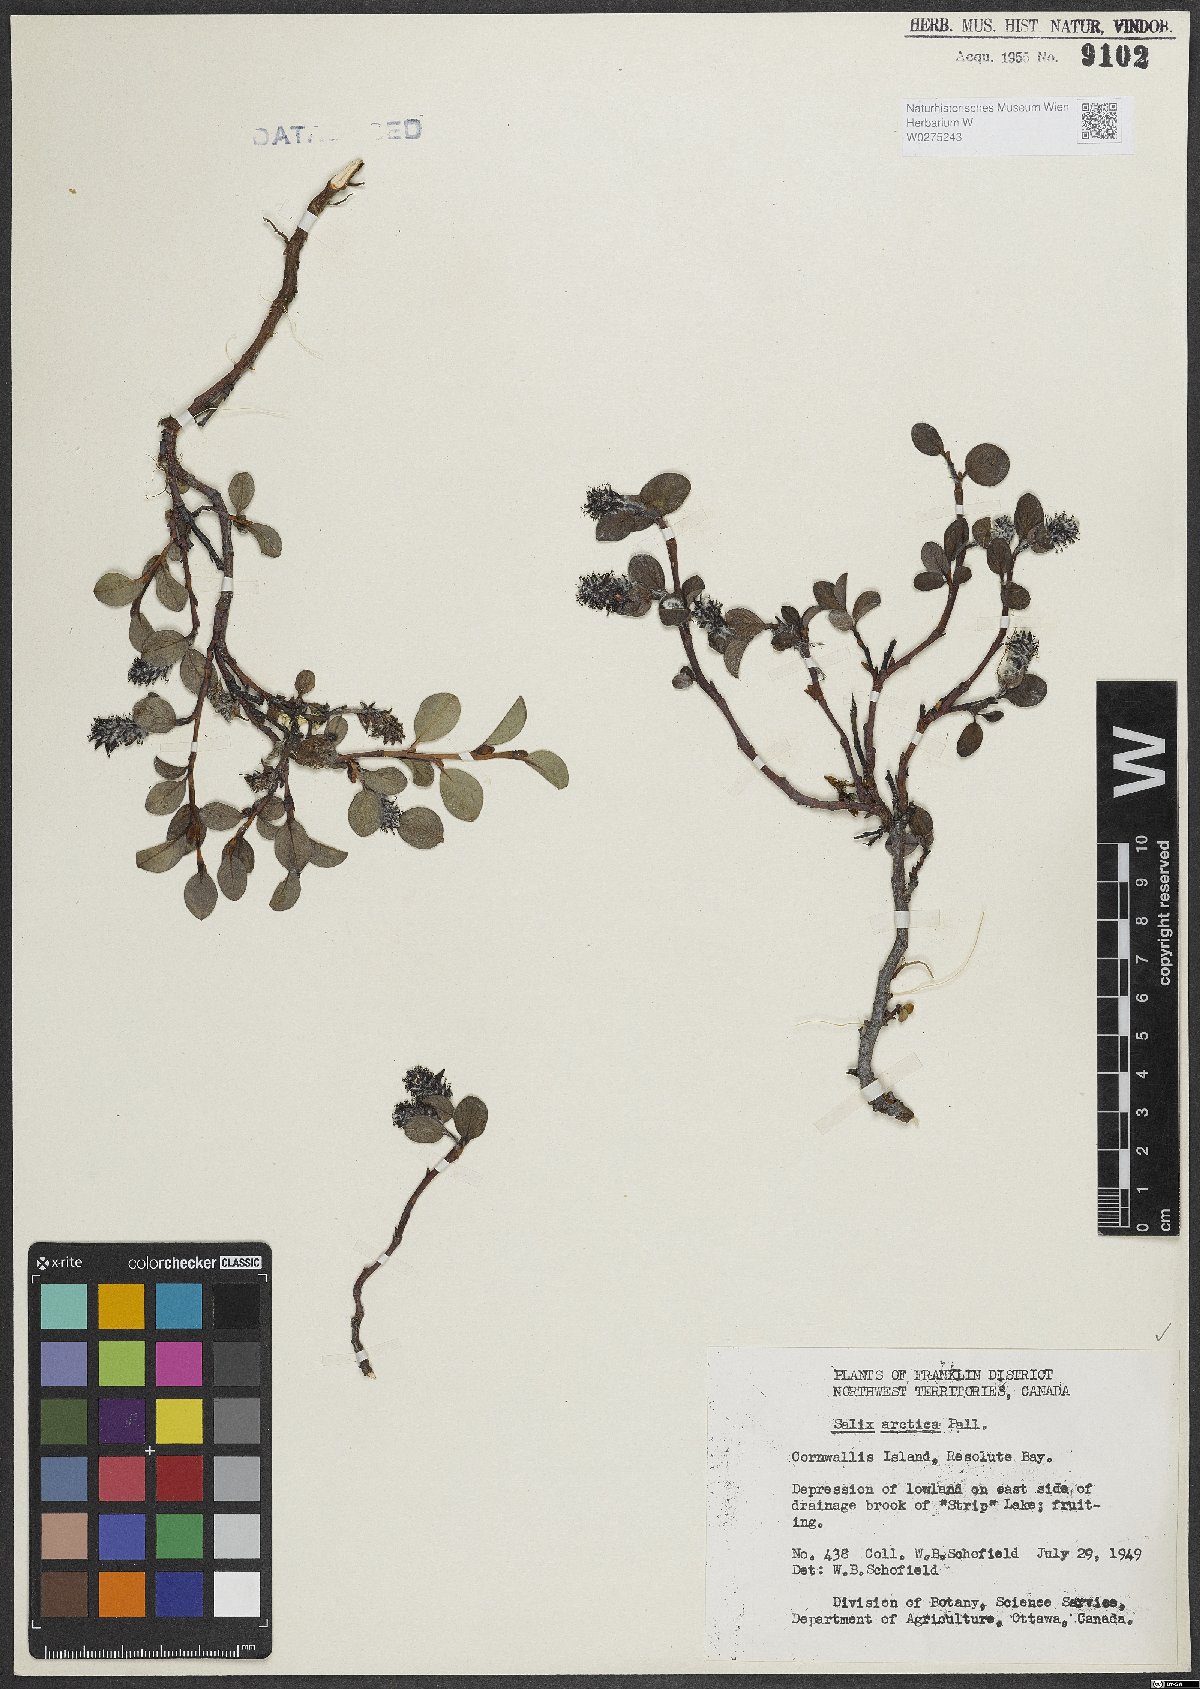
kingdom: Plantae
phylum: Tracheophyta
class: Magnoliopsida
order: Malpighiales
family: Salicaceae
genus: Salix
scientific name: Salix arctica
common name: Arctic willow
